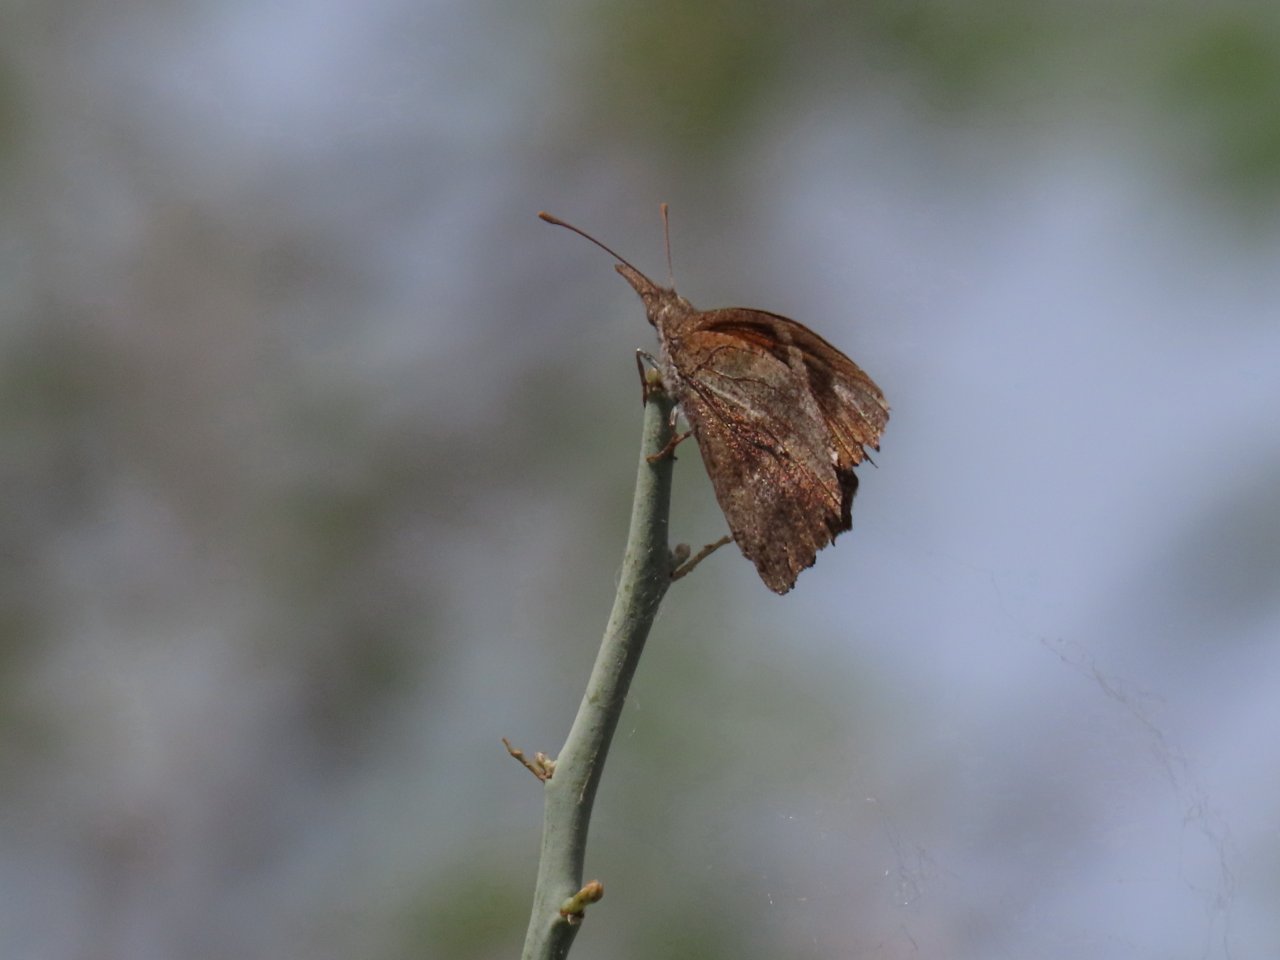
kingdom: Animalia
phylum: Arthropoda
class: Insecta
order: Lepidoptera
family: Nymphalidae
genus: Libytheana
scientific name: Libytheana carinenta
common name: American Snout
